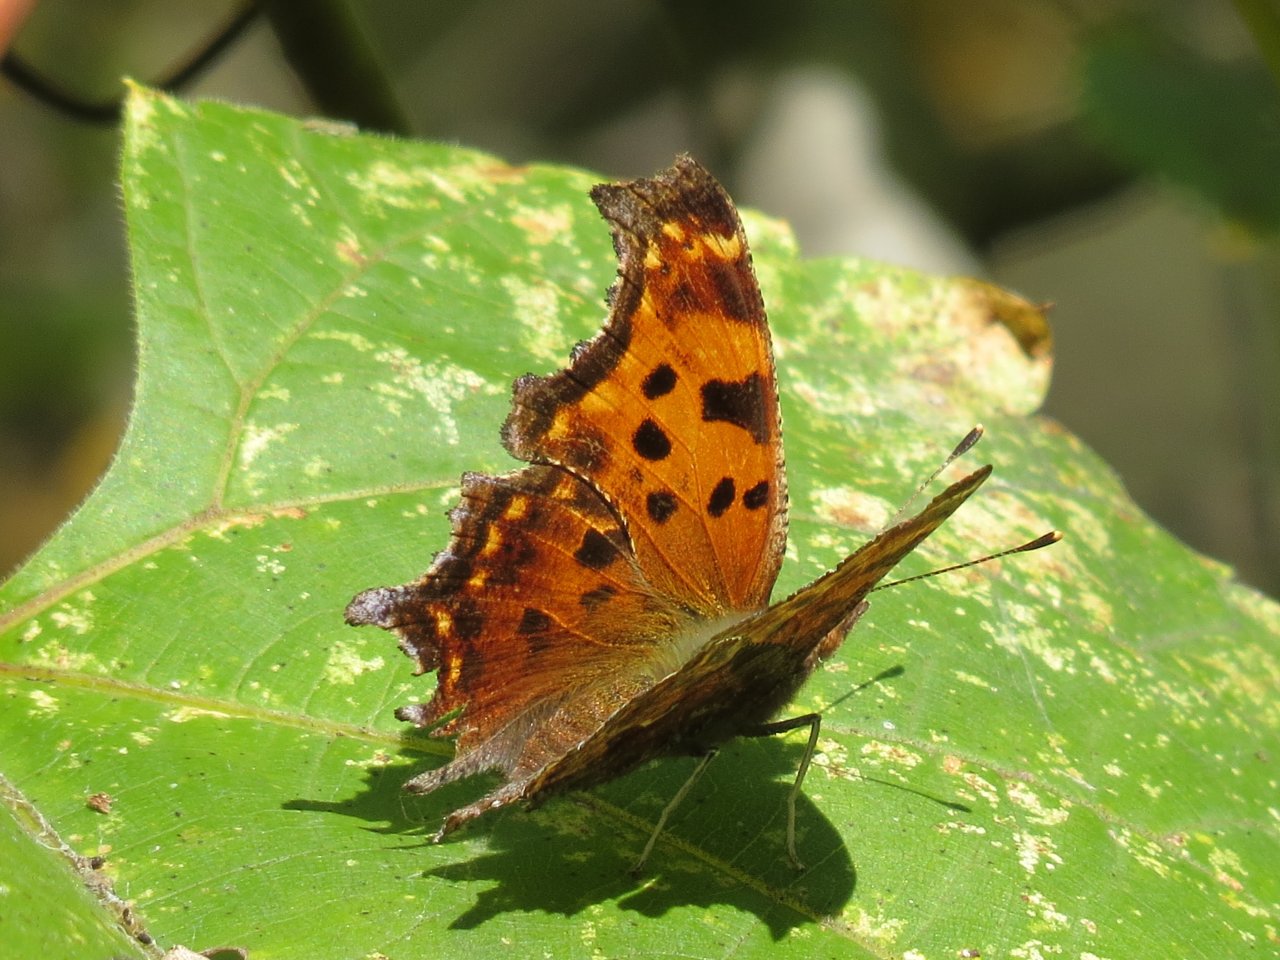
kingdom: Animalia
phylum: Arthropoda
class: Insecta
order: Lepidoptera
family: Nymphalidae
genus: Polygonia
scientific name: Polygonia comma
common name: Eastern Comma
